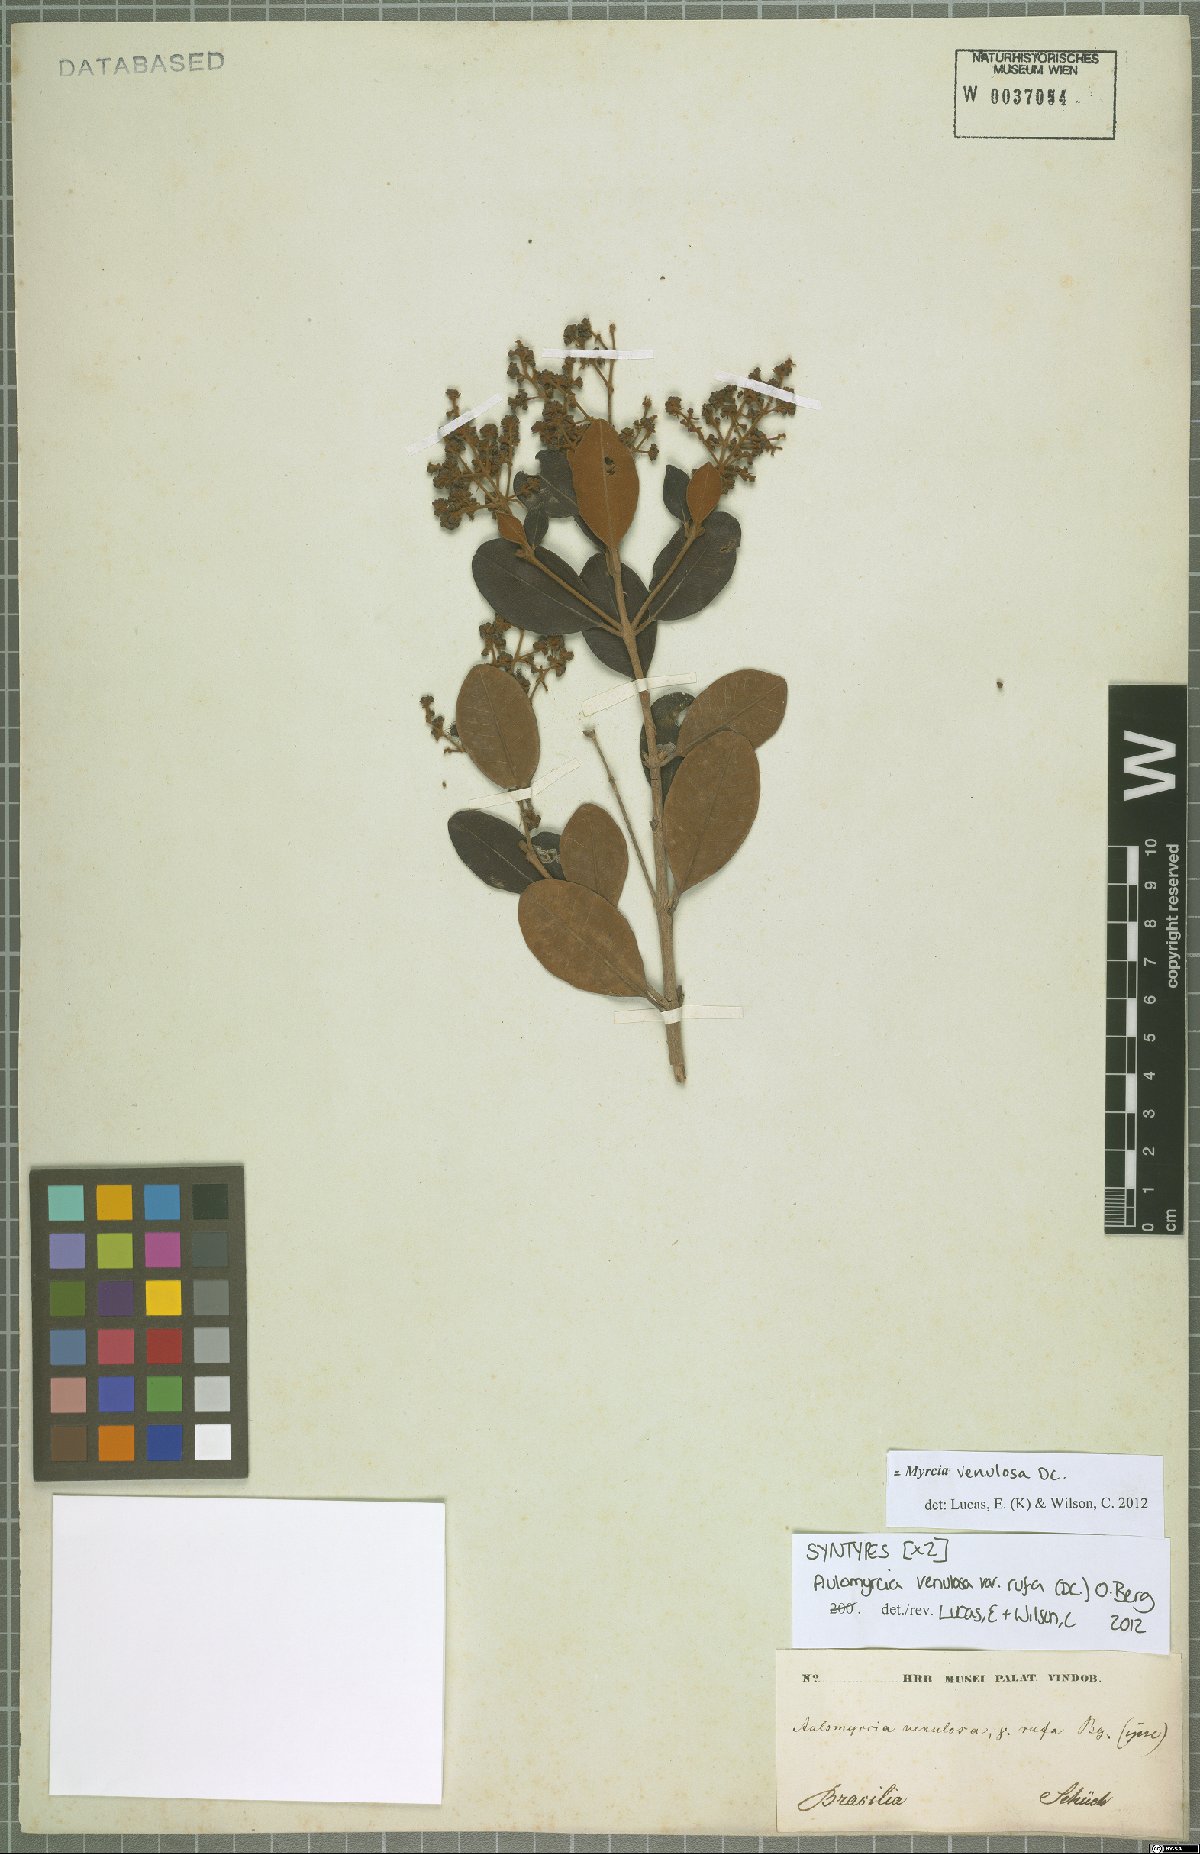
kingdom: Plantae
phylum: Tracheophyta
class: Magnoliopsida
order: Myrtales
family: Myrtaceae
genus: Myrcia
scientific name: Myrcia venulosa
